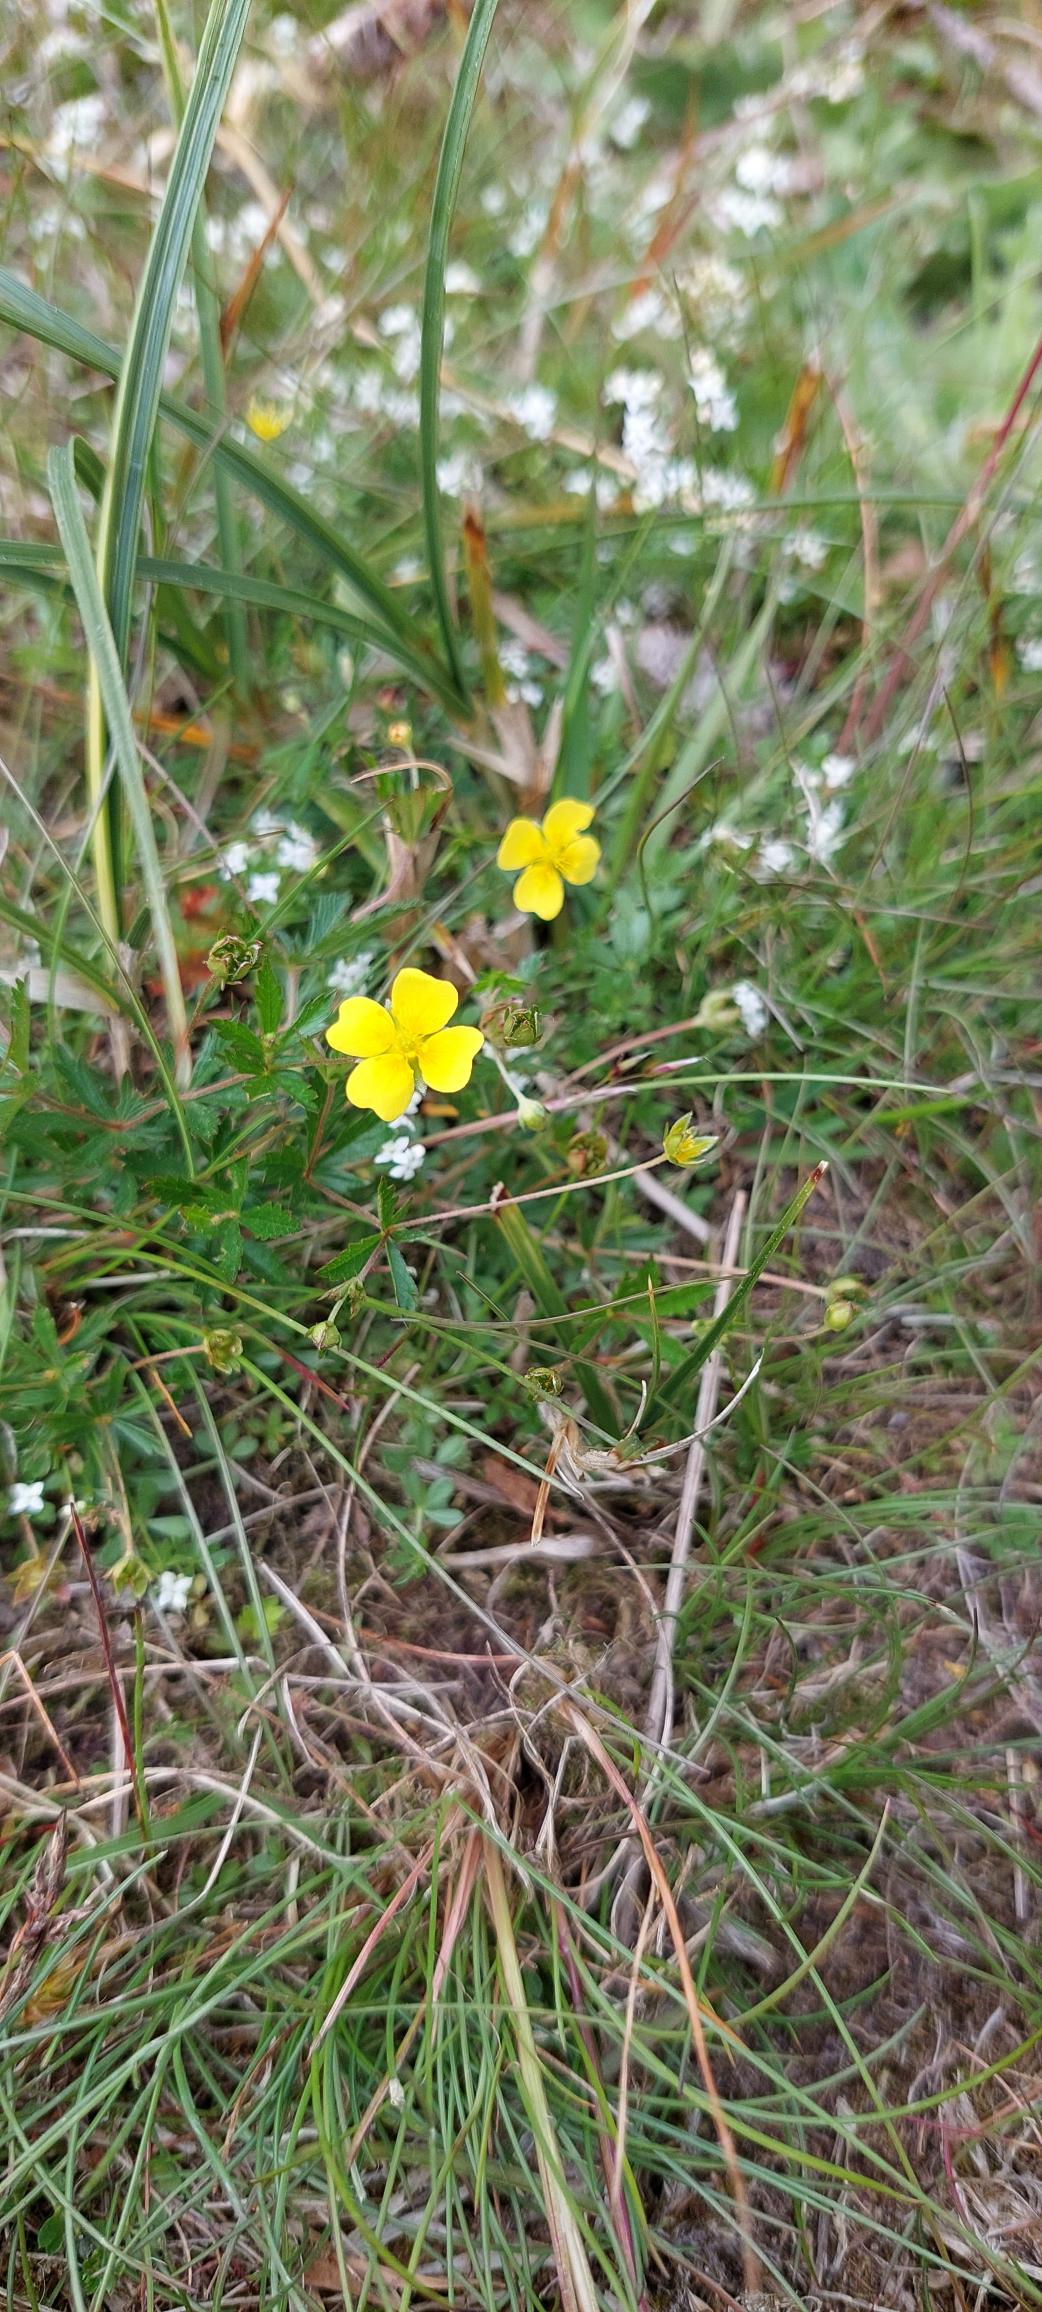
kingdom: Plantae
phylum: Tracheophyta
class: Magnoliopsida
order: Rosales
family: Rosaceae
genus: Potentilla
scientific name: Potentilla erecta
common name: Tormentil
